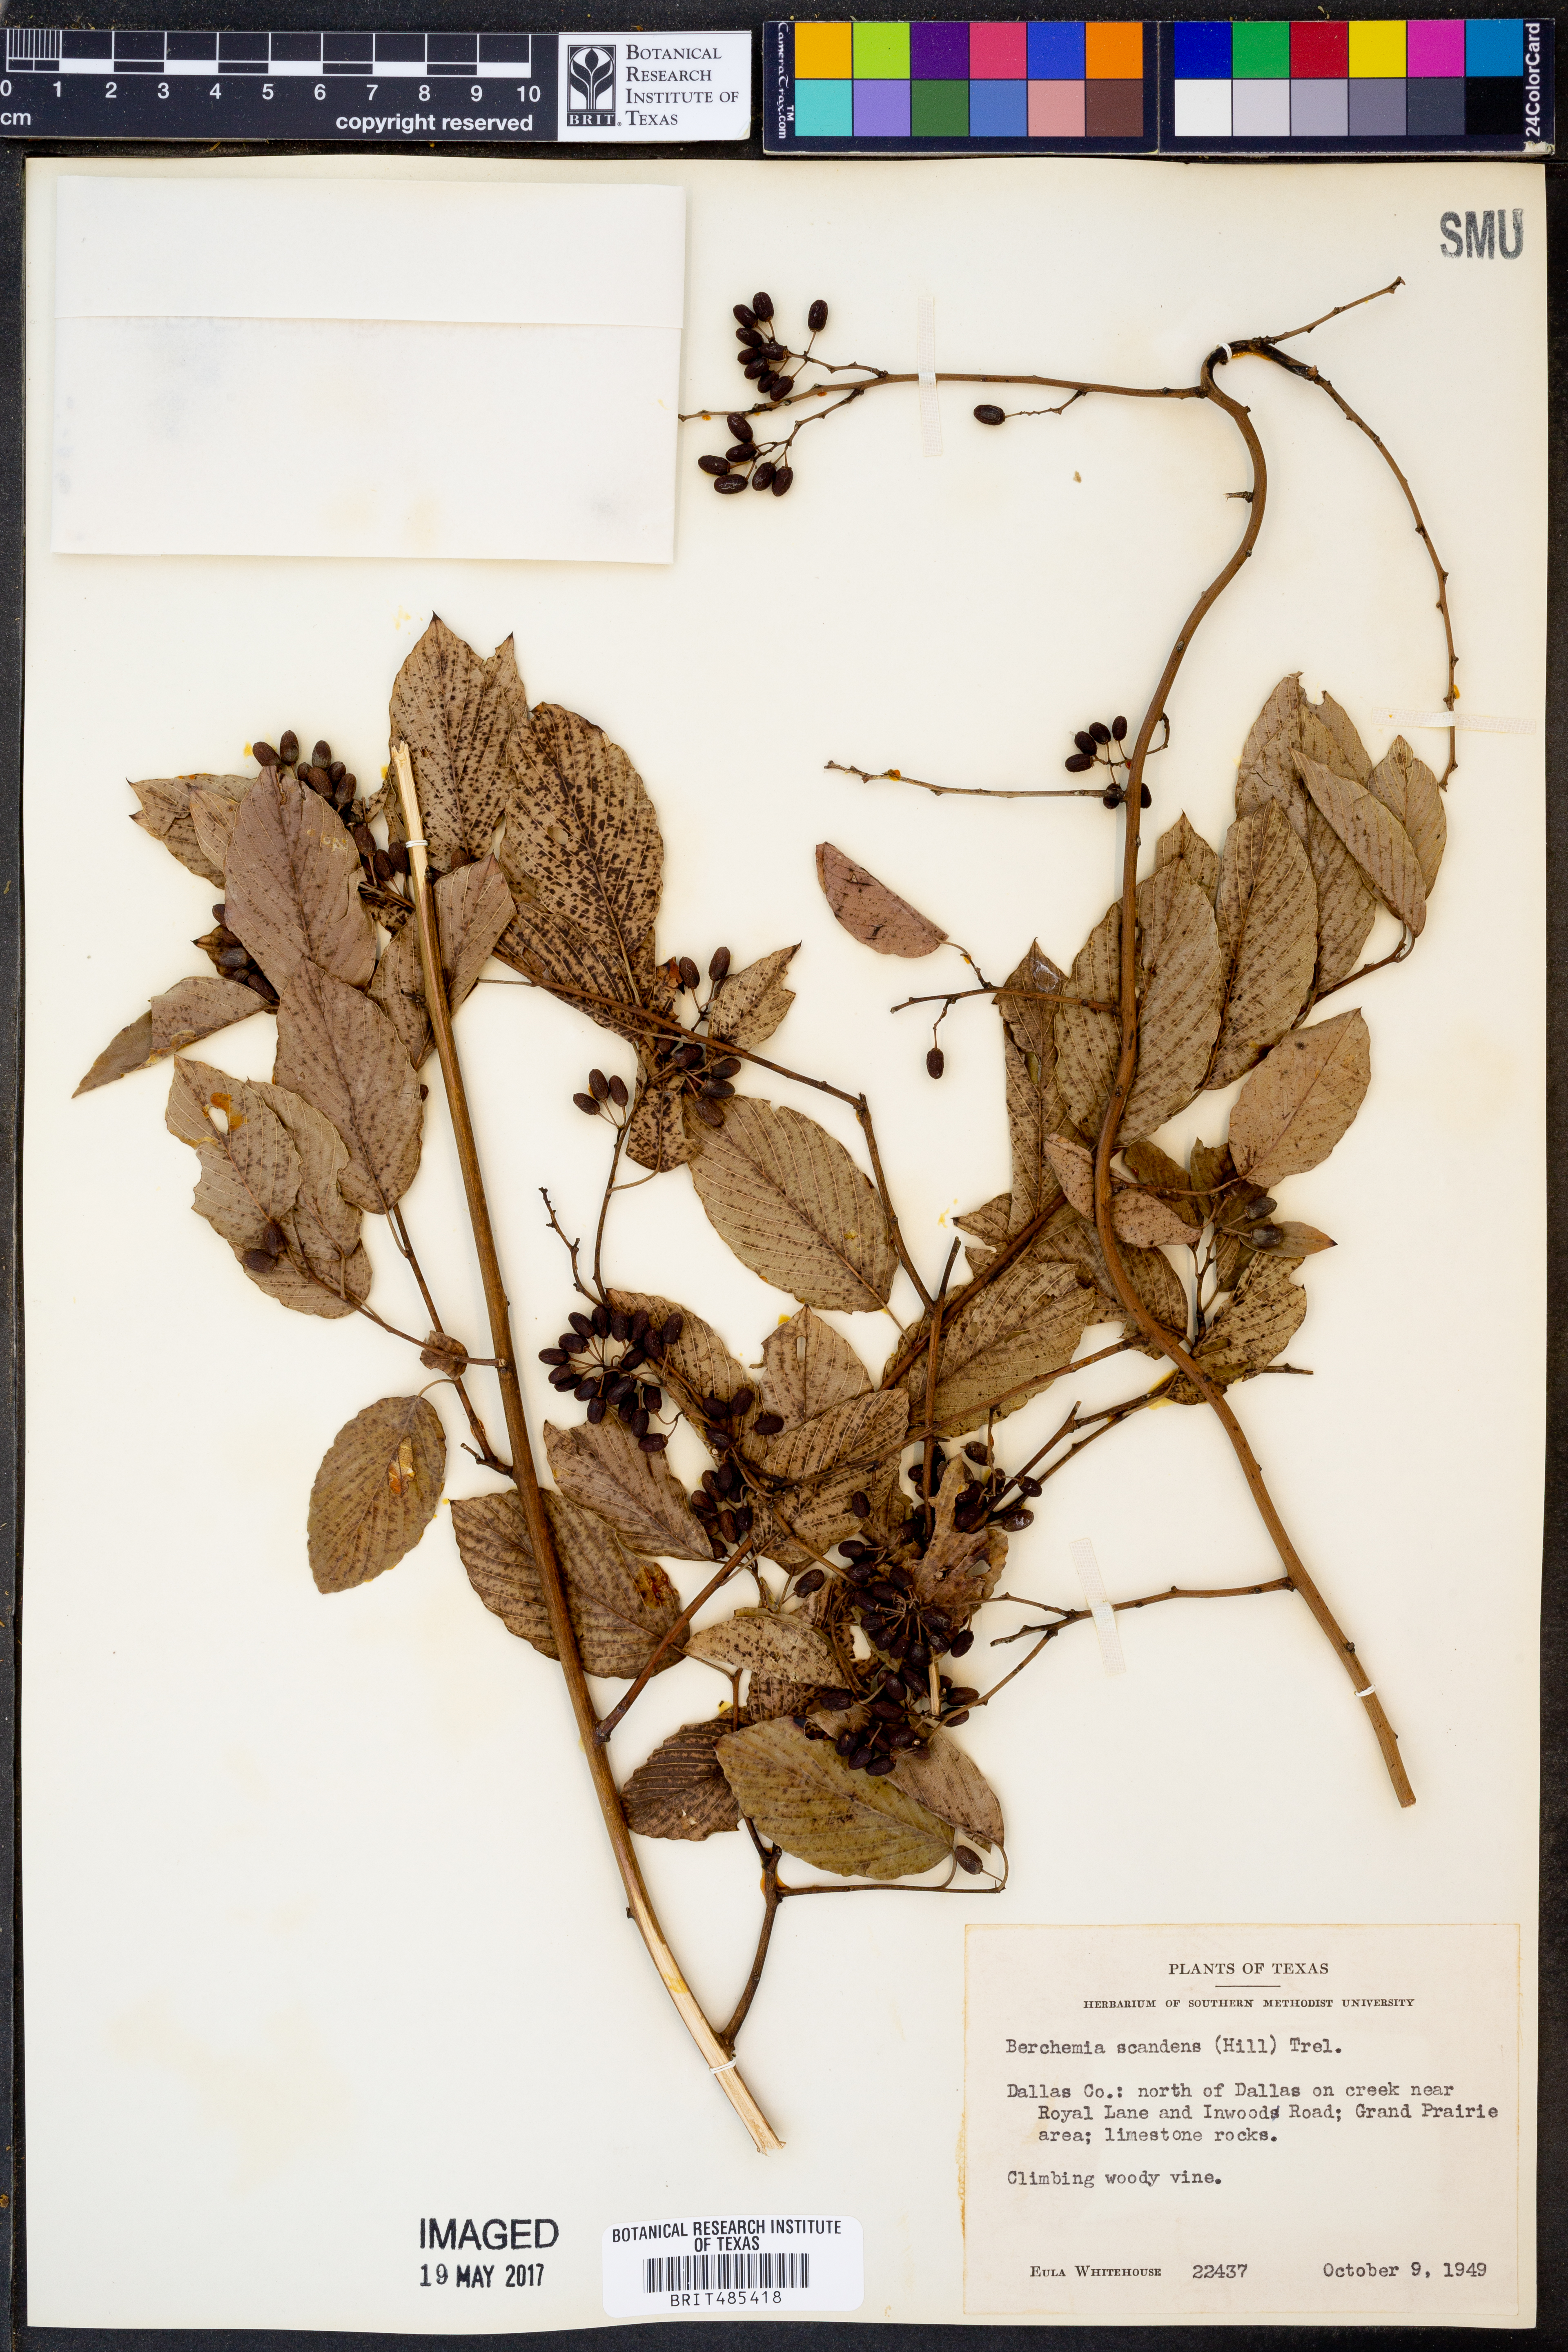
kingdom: Plantae
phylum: Tracheophyta
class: Magnoliopsida
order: Rosales
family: Rhamnaceae
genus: Berchemia
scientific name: Berchemia scandens
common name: Supplejack
